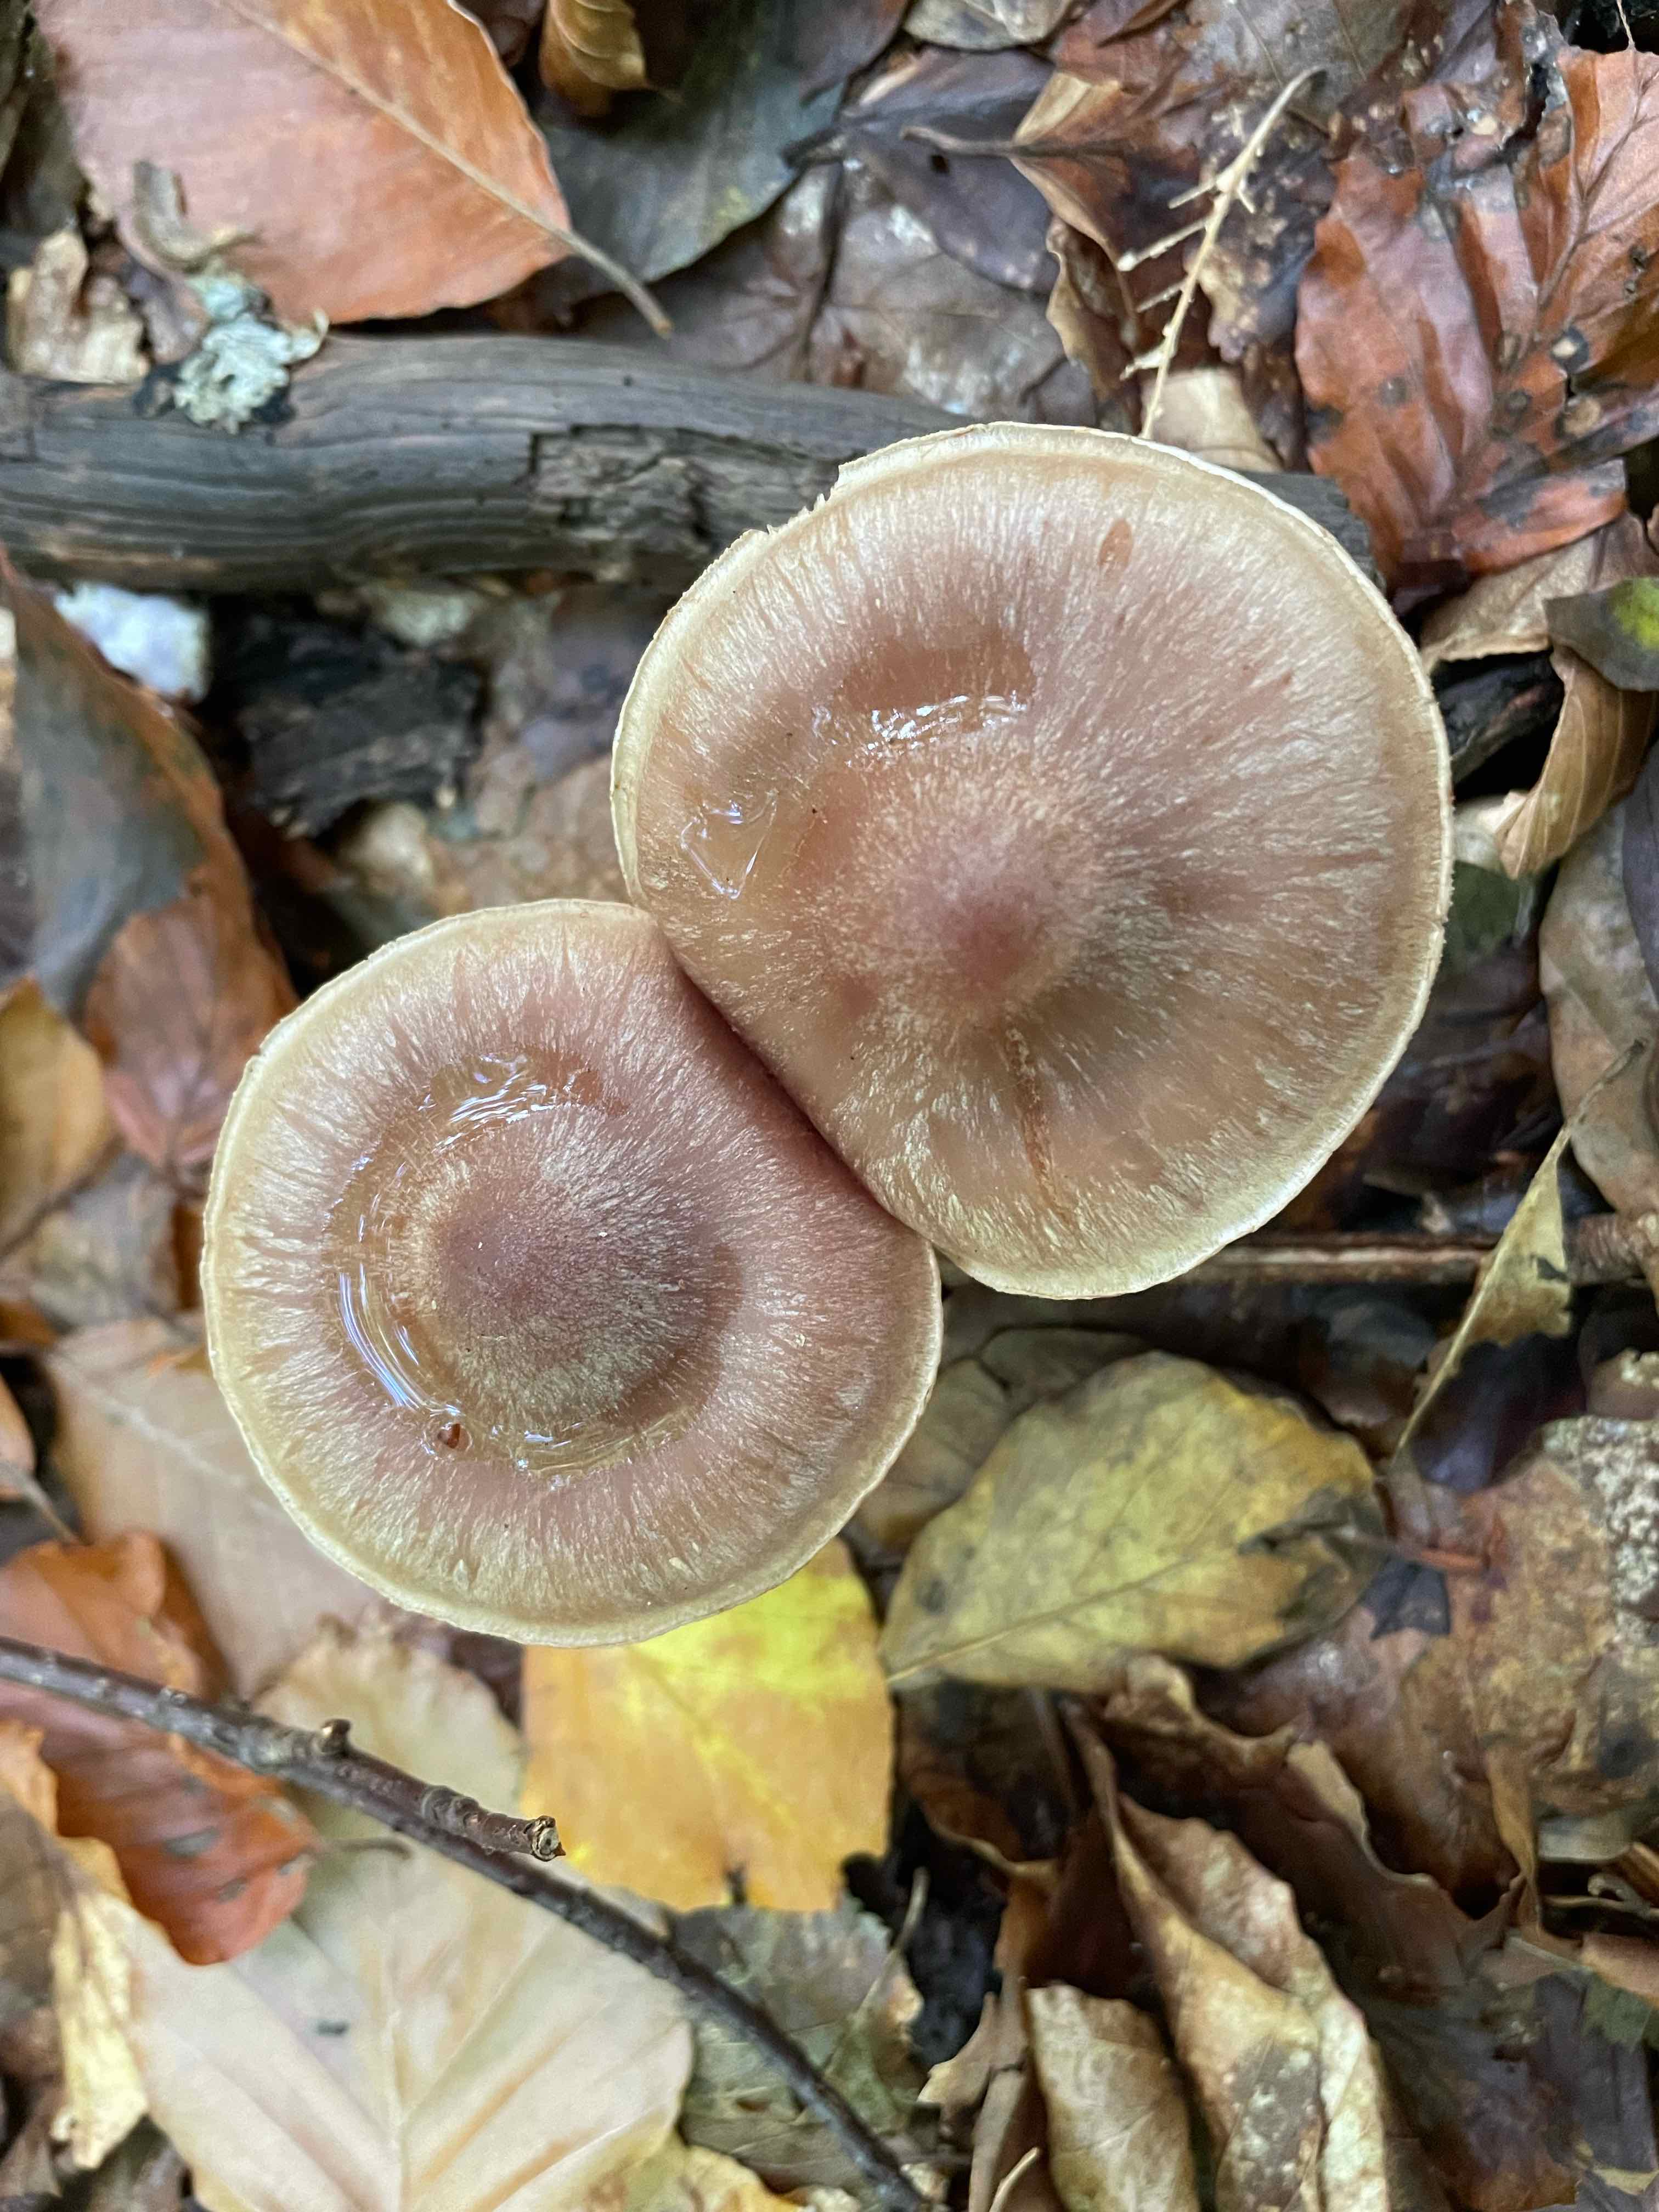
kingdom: Fungi
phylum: Basidiomycota
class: Agaricomycetes
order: Agaricales
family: Cortinariaceae
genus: Cortinarius
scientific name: Cortinarius murinascens
